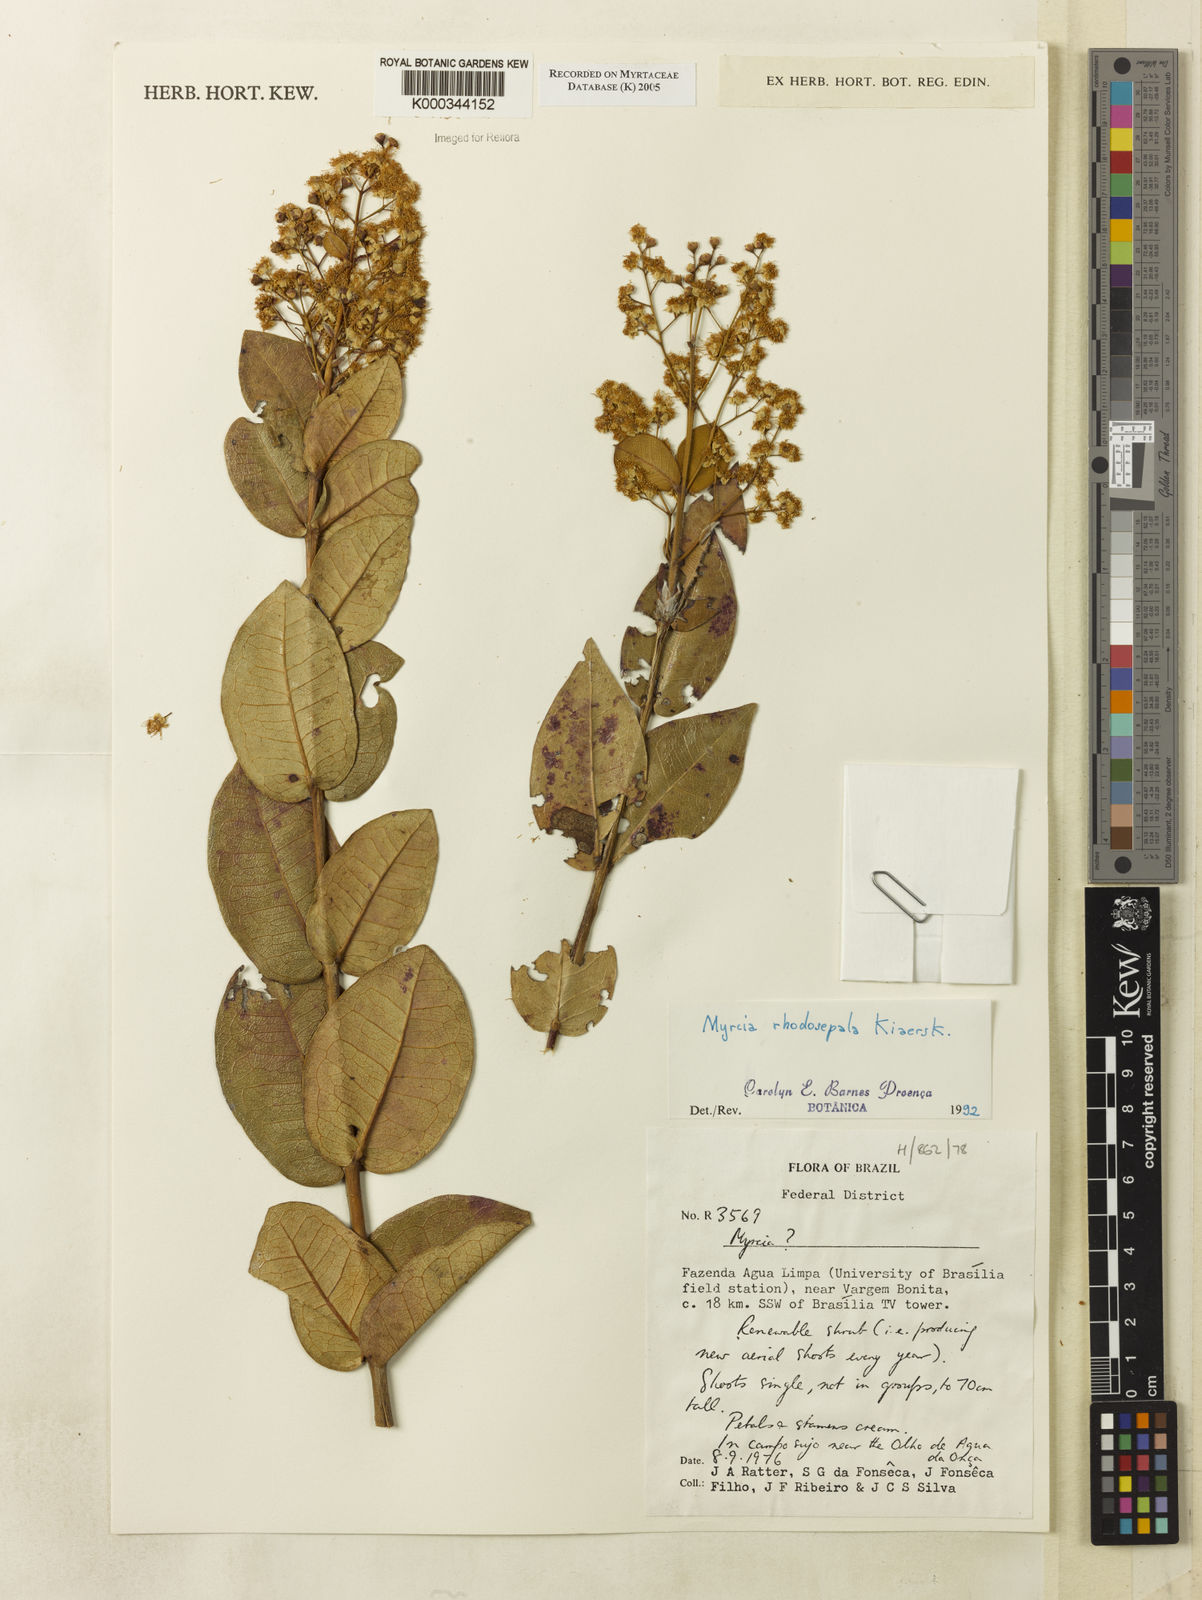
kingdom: Plantae
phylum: Tracheophyta
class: Magnoliopsida
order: Myrtales
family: Myrtaceae
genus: Myrcia
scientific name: Myrcia tomentosa
